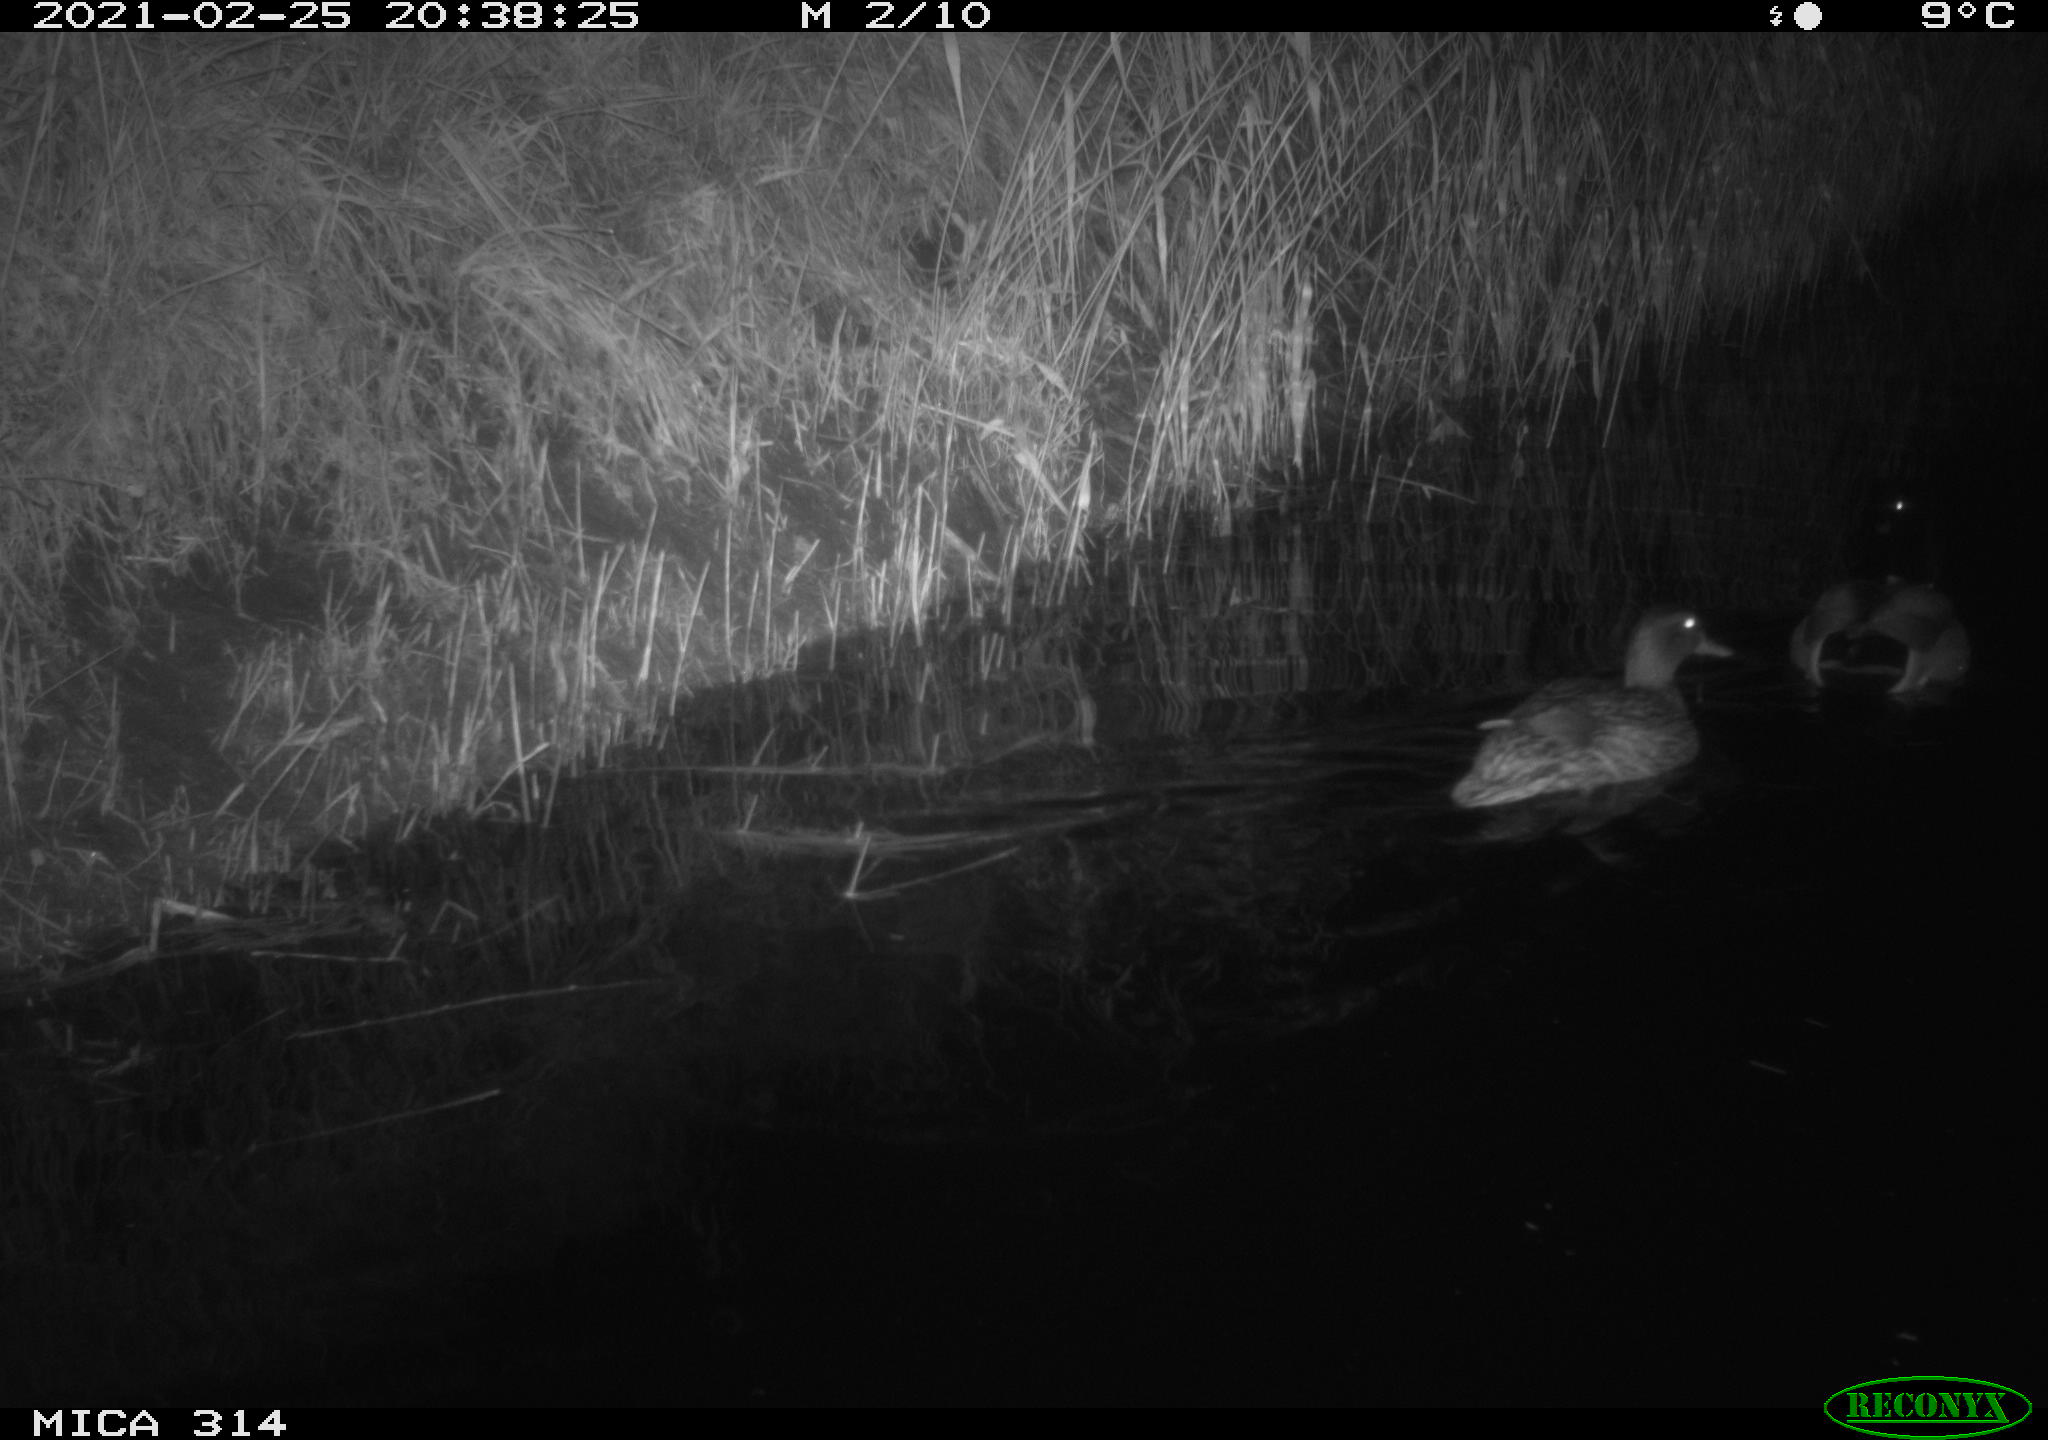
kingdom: Animalia
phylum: Chordata
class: Aves
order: Anseriformes
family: Anatidae
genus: Anas
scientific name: Anas platyrhynchos
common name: Mallard
